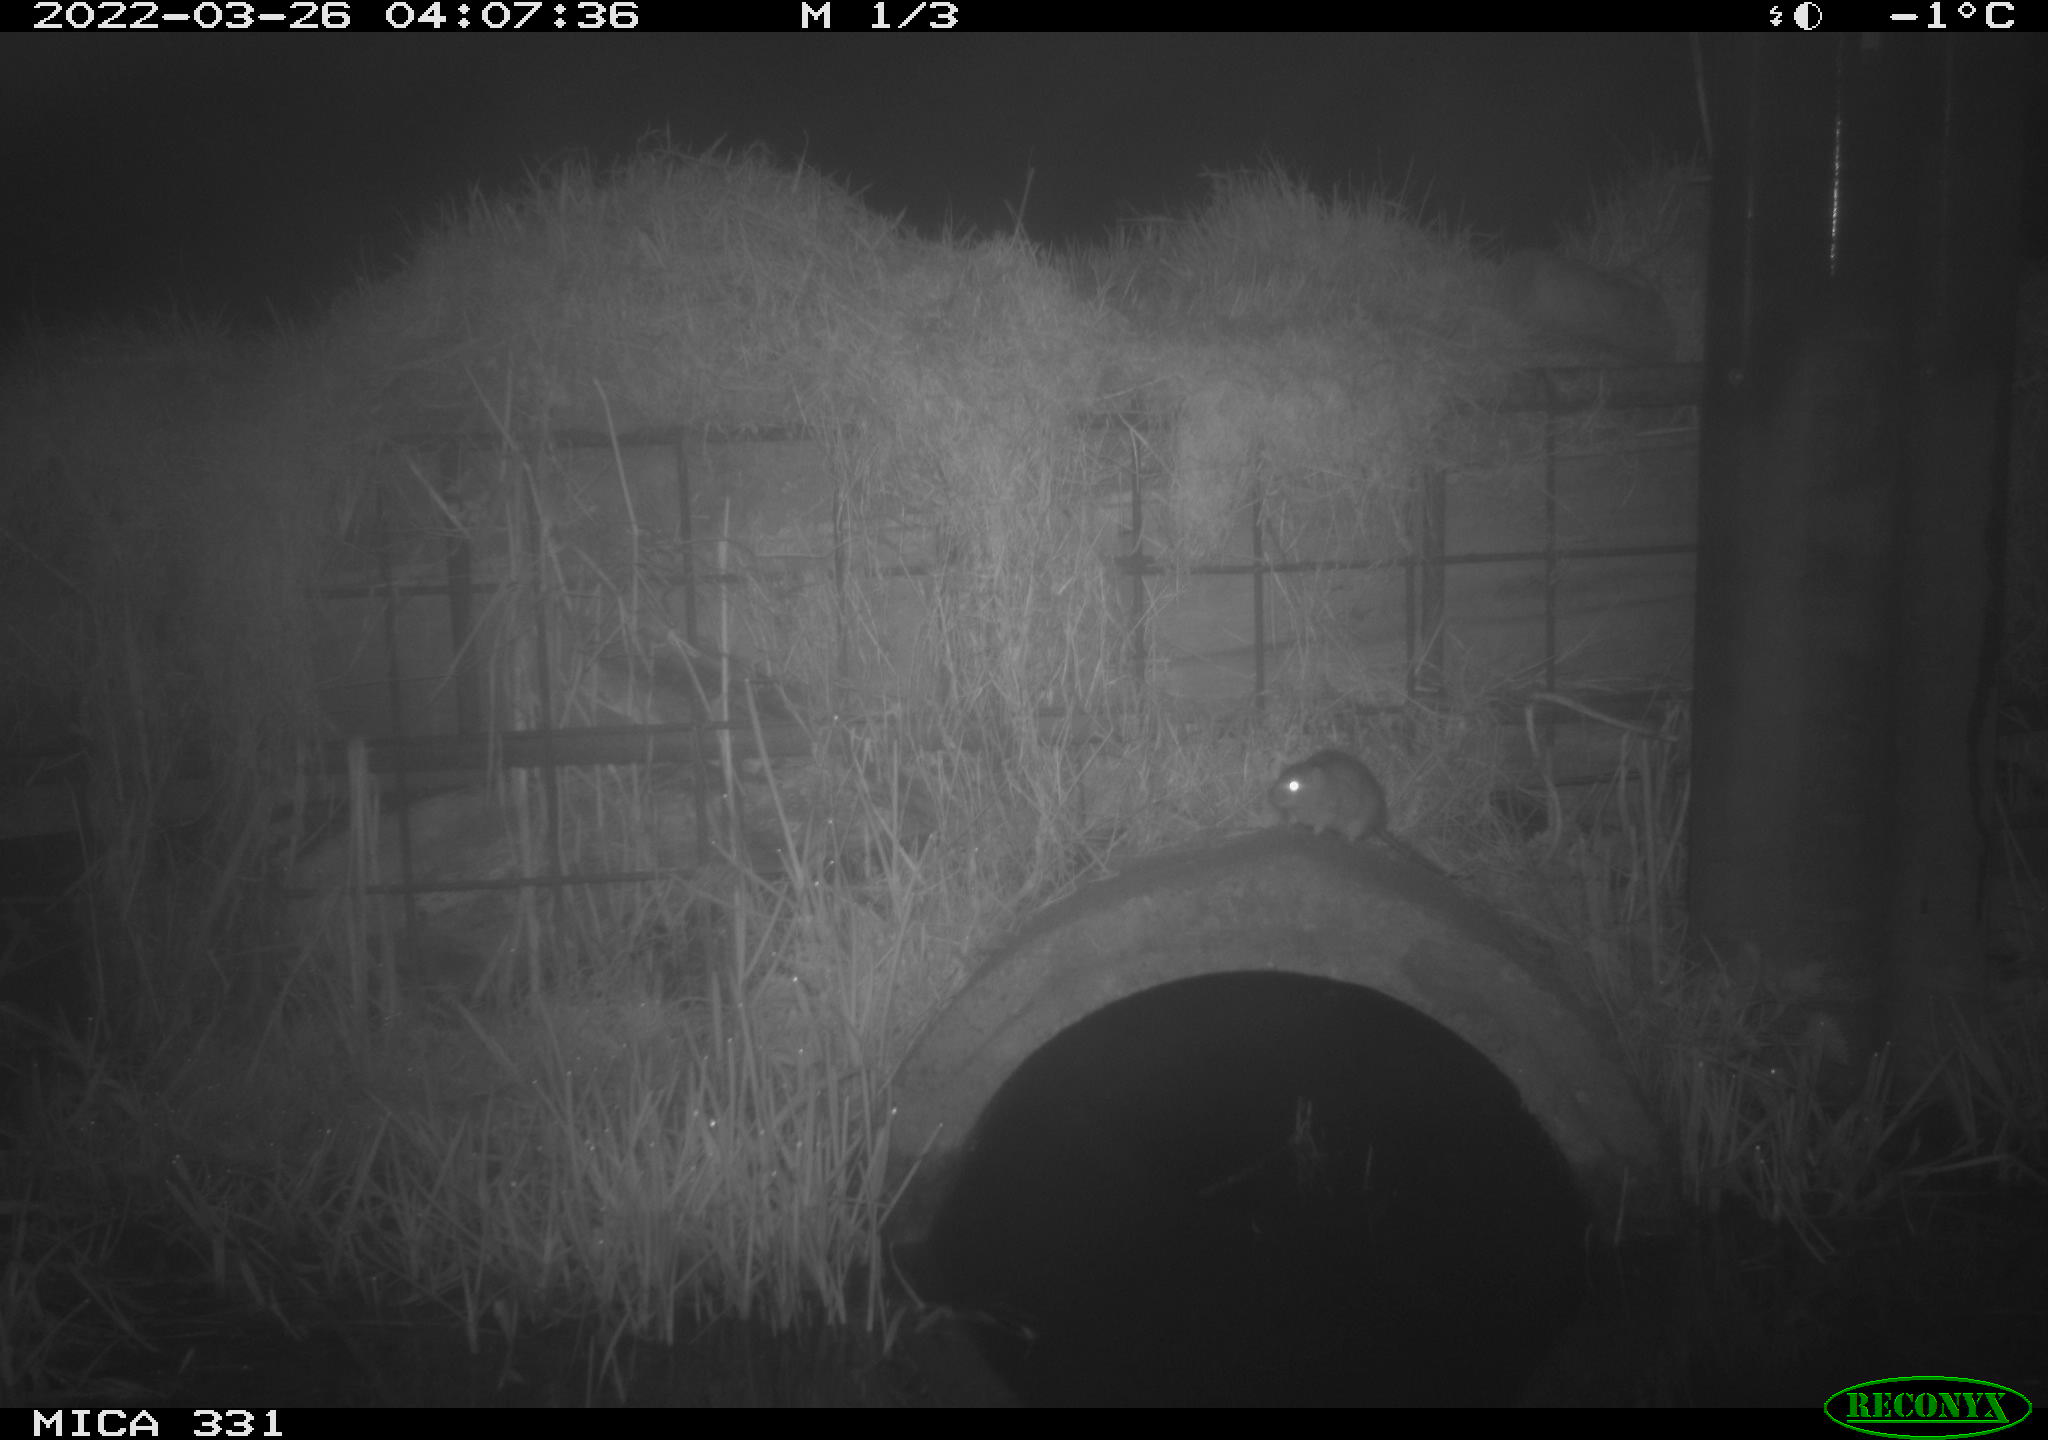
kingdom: Animalia
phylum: Chordata
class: Mammalia
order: Rodentia
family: Muridae
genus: Rattus
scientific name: Rattus norvegicus
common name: Brown rat
